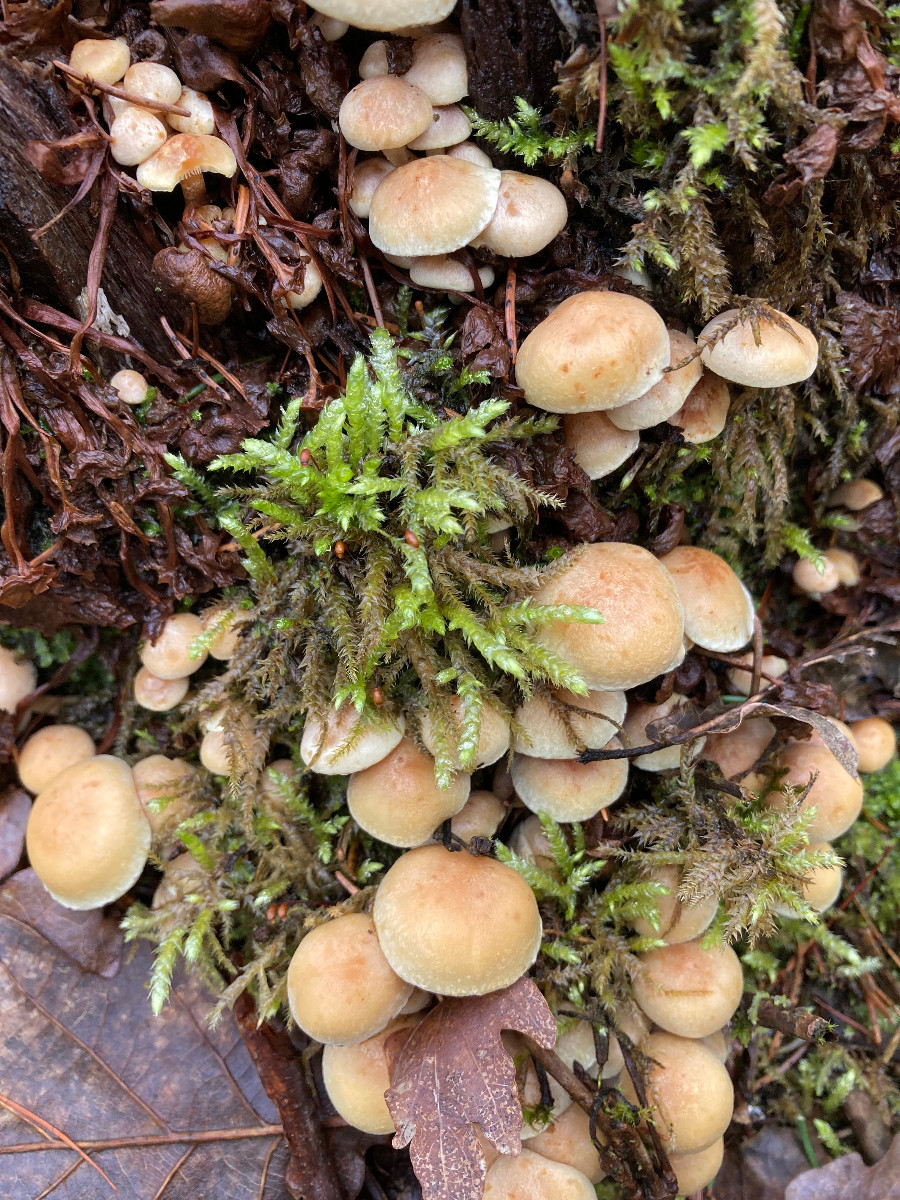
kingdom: Fungi
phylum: Basidiomycota
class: Agaricomycetes
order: Agaricales
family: Strophariaceae
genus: Hypholoma
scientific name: Hypholoma fasciculare
